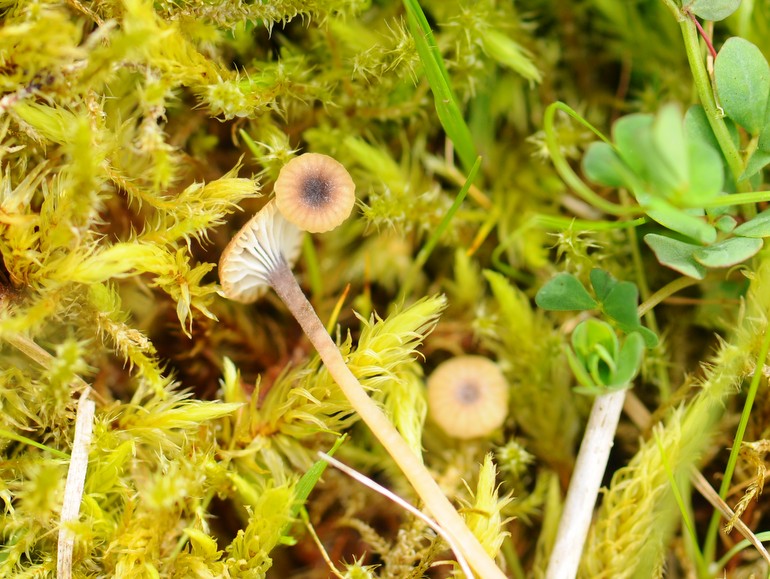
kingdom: Fungi
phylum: Basidiomycota
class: Agaricomycetes
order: Hymenochaetales
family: Rickenellaceae
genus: Rickenella
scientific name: Rickenella swartzii
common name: finstokket mosnavlehat
